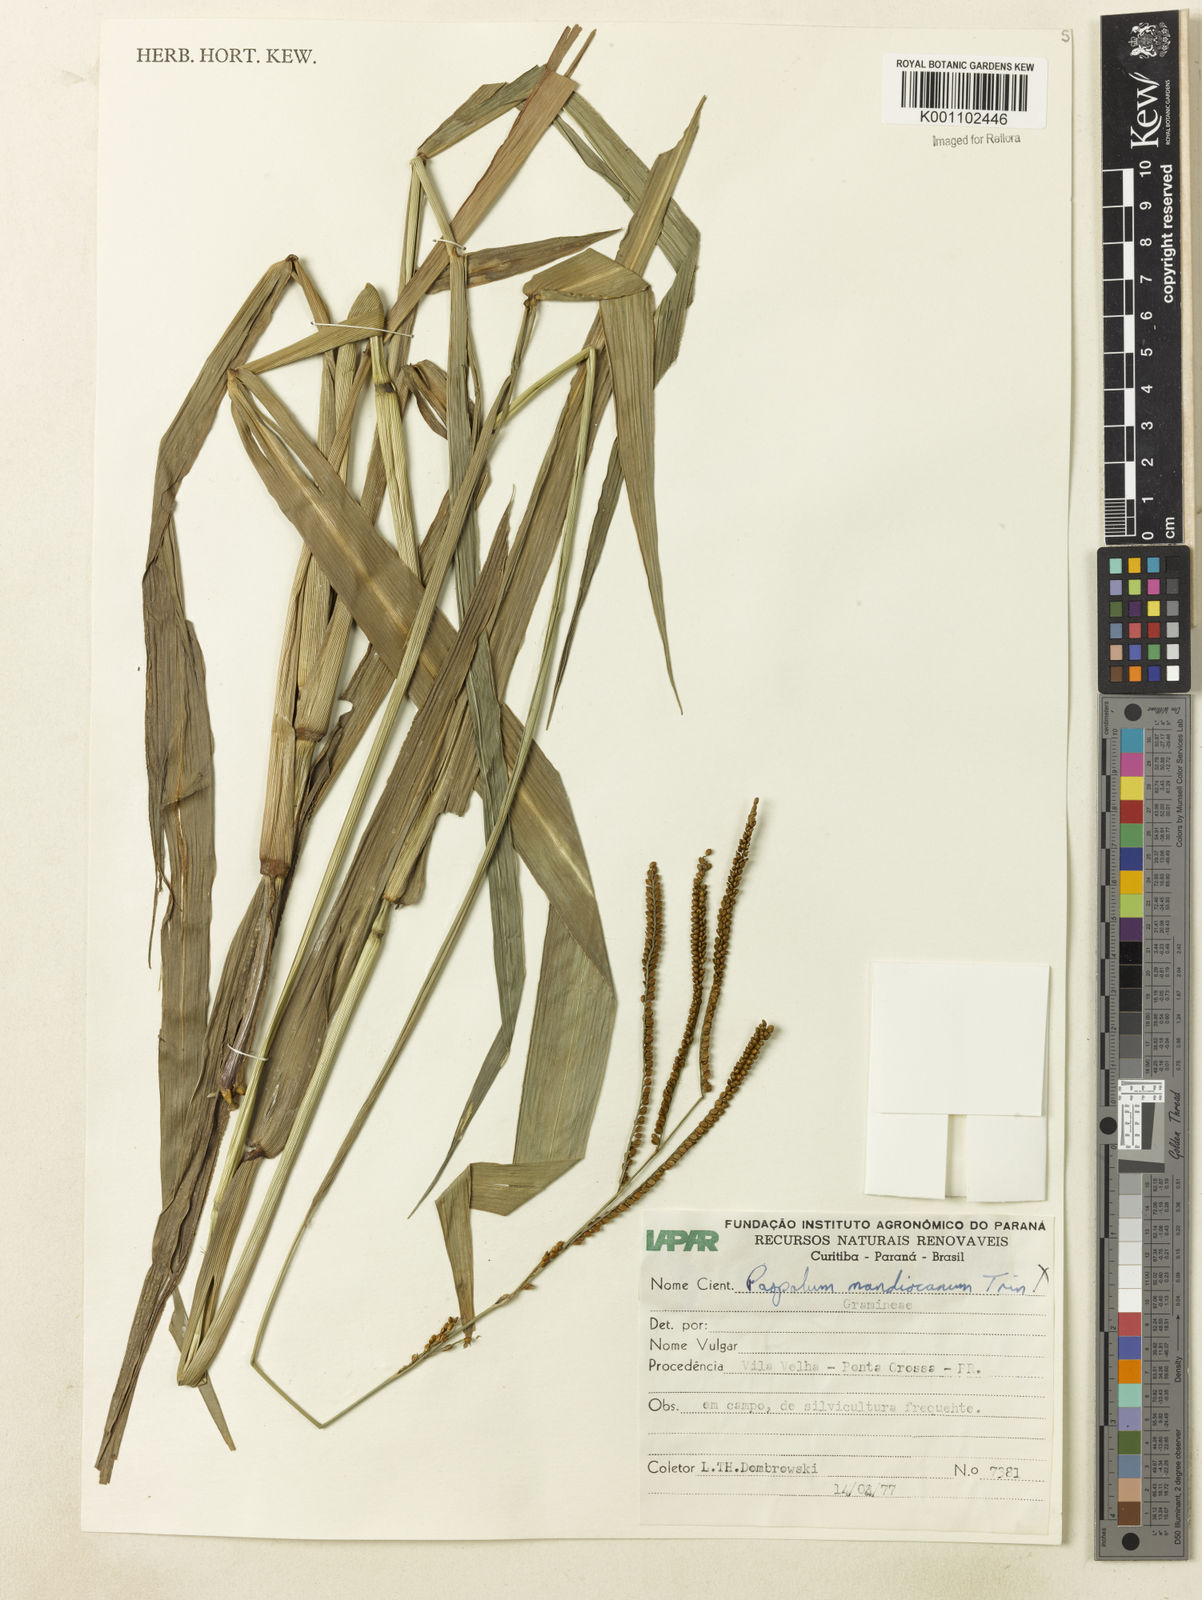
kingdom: Plantae
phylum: Tracheophyta
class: Liliopsida
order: Poales
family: Poaceae
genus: Paspalum
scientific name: Paspalum virgatum
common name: Talquezal
